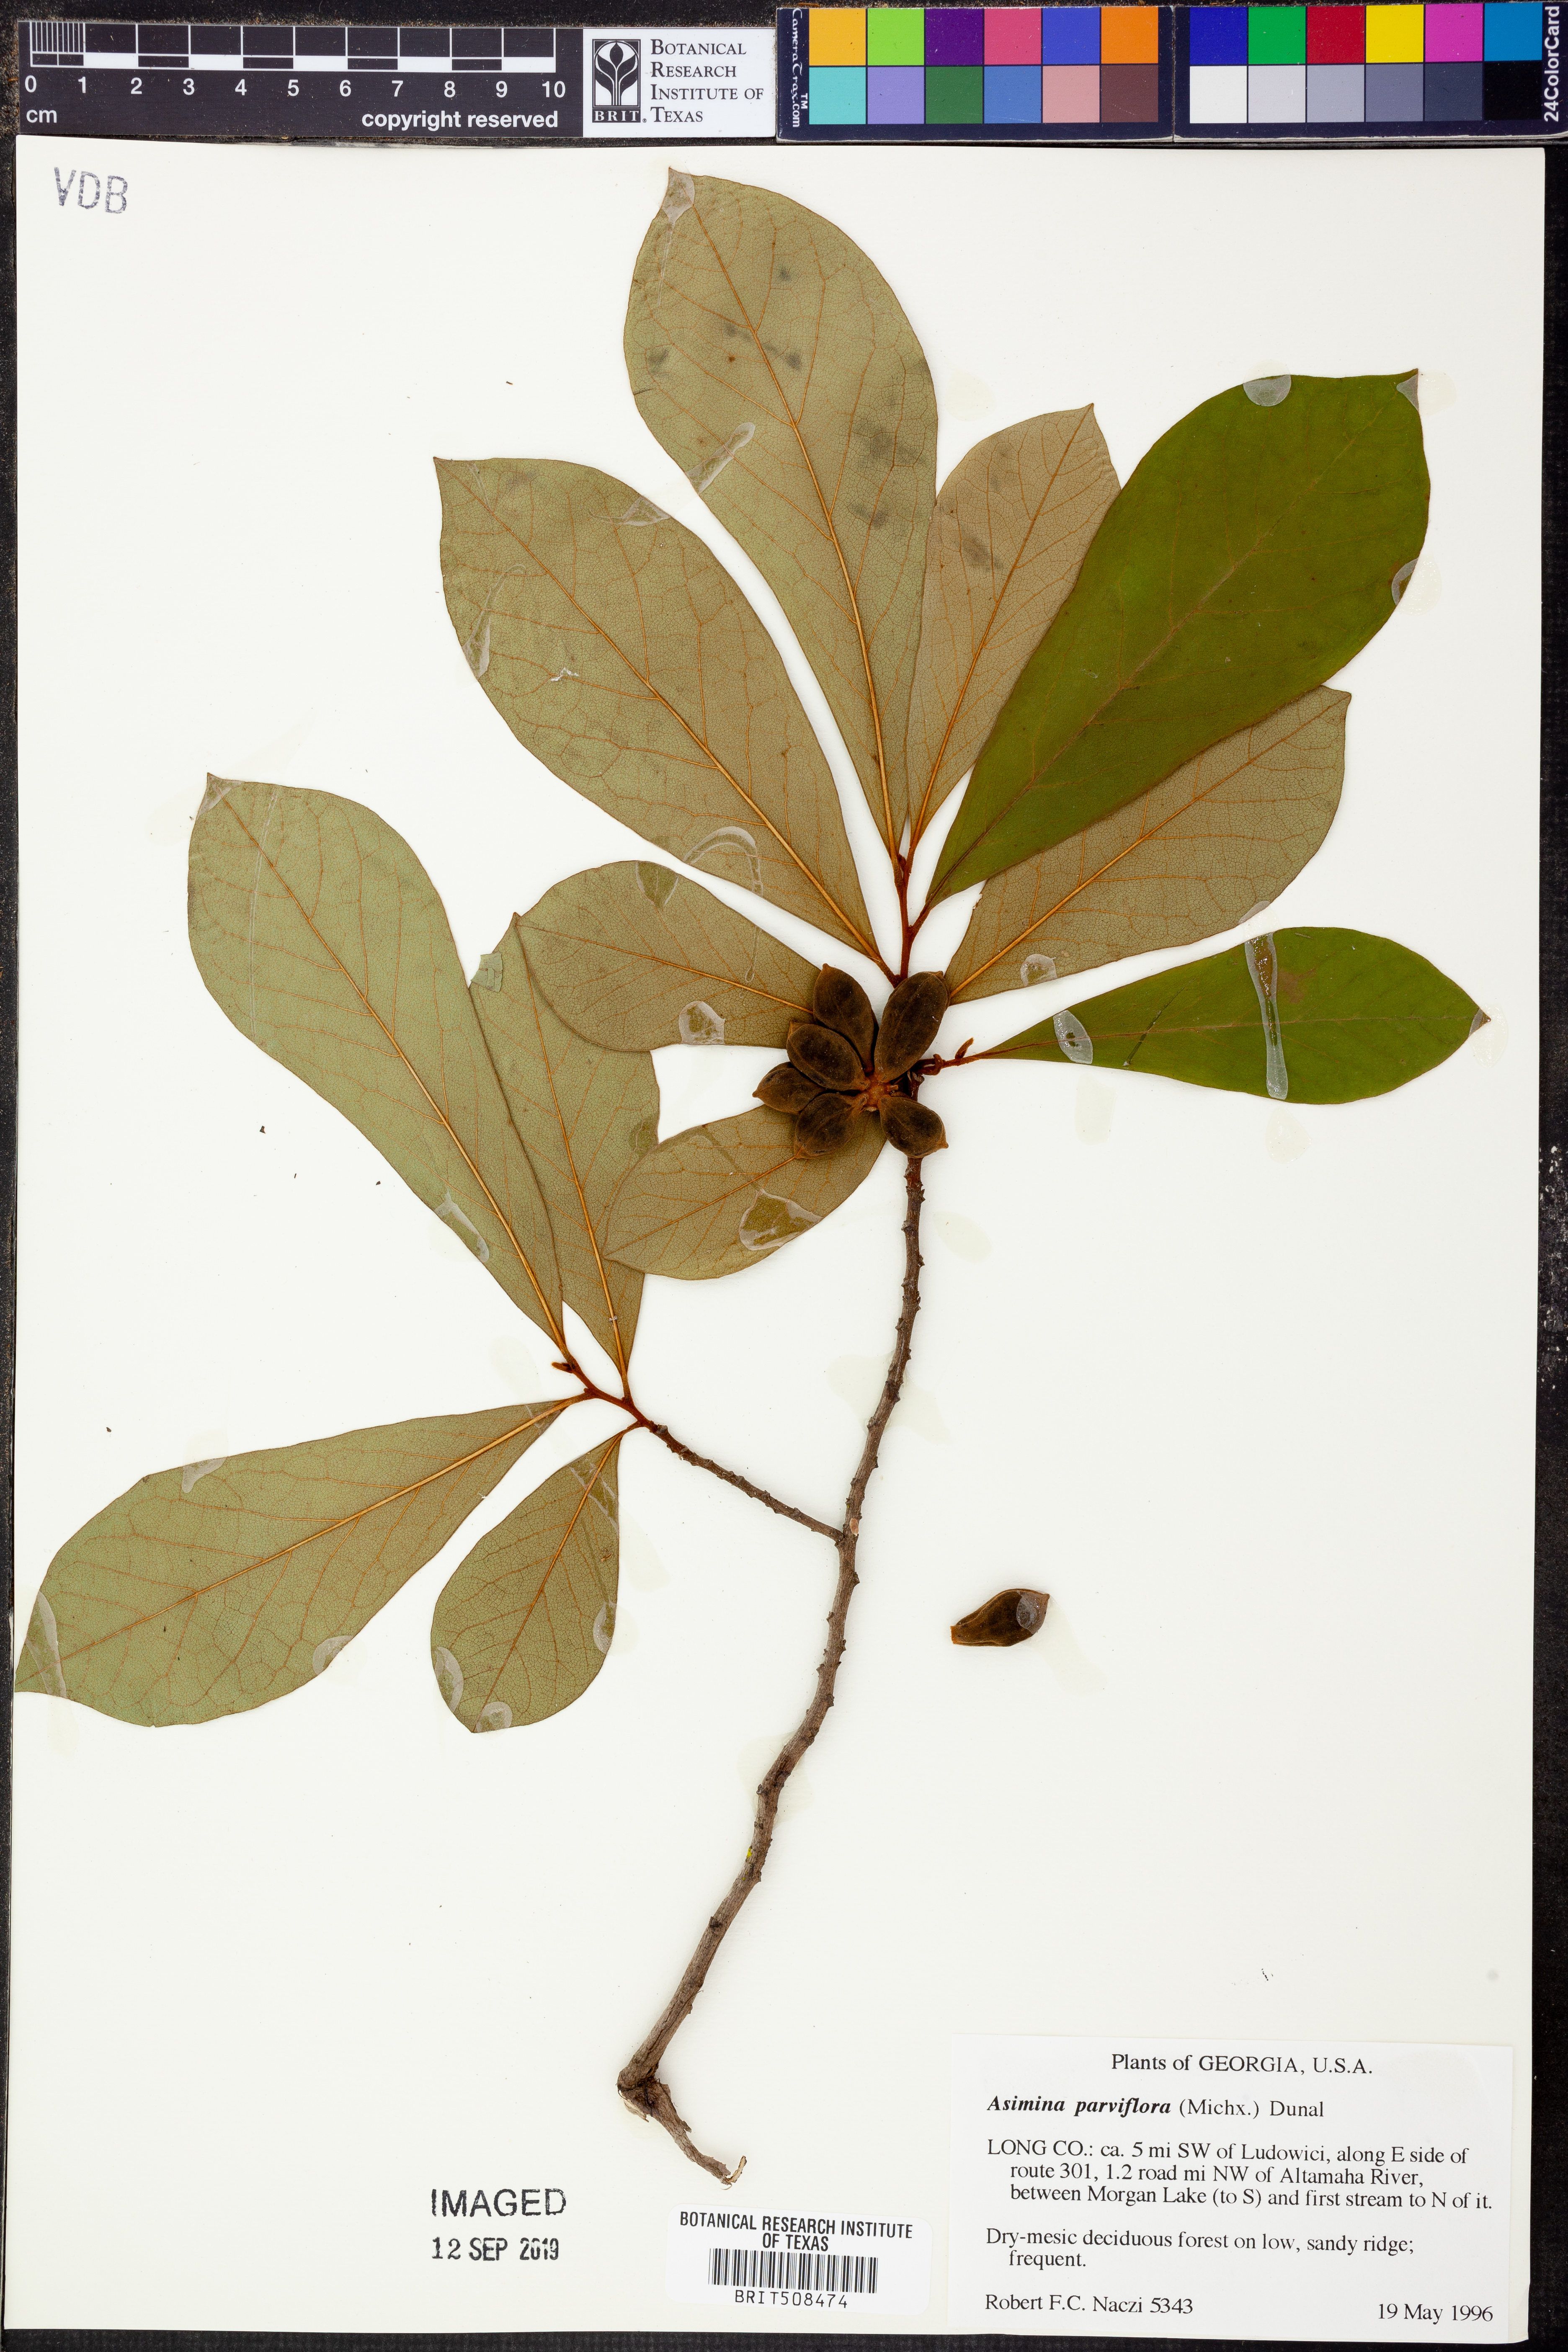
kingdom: Plantae
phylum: Tracheophyta
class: Magnoliopsida
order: Magnoliales
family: Annonaceae
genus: Asimina
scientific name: Asimina parviflora
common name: Dwarf pawpaw
